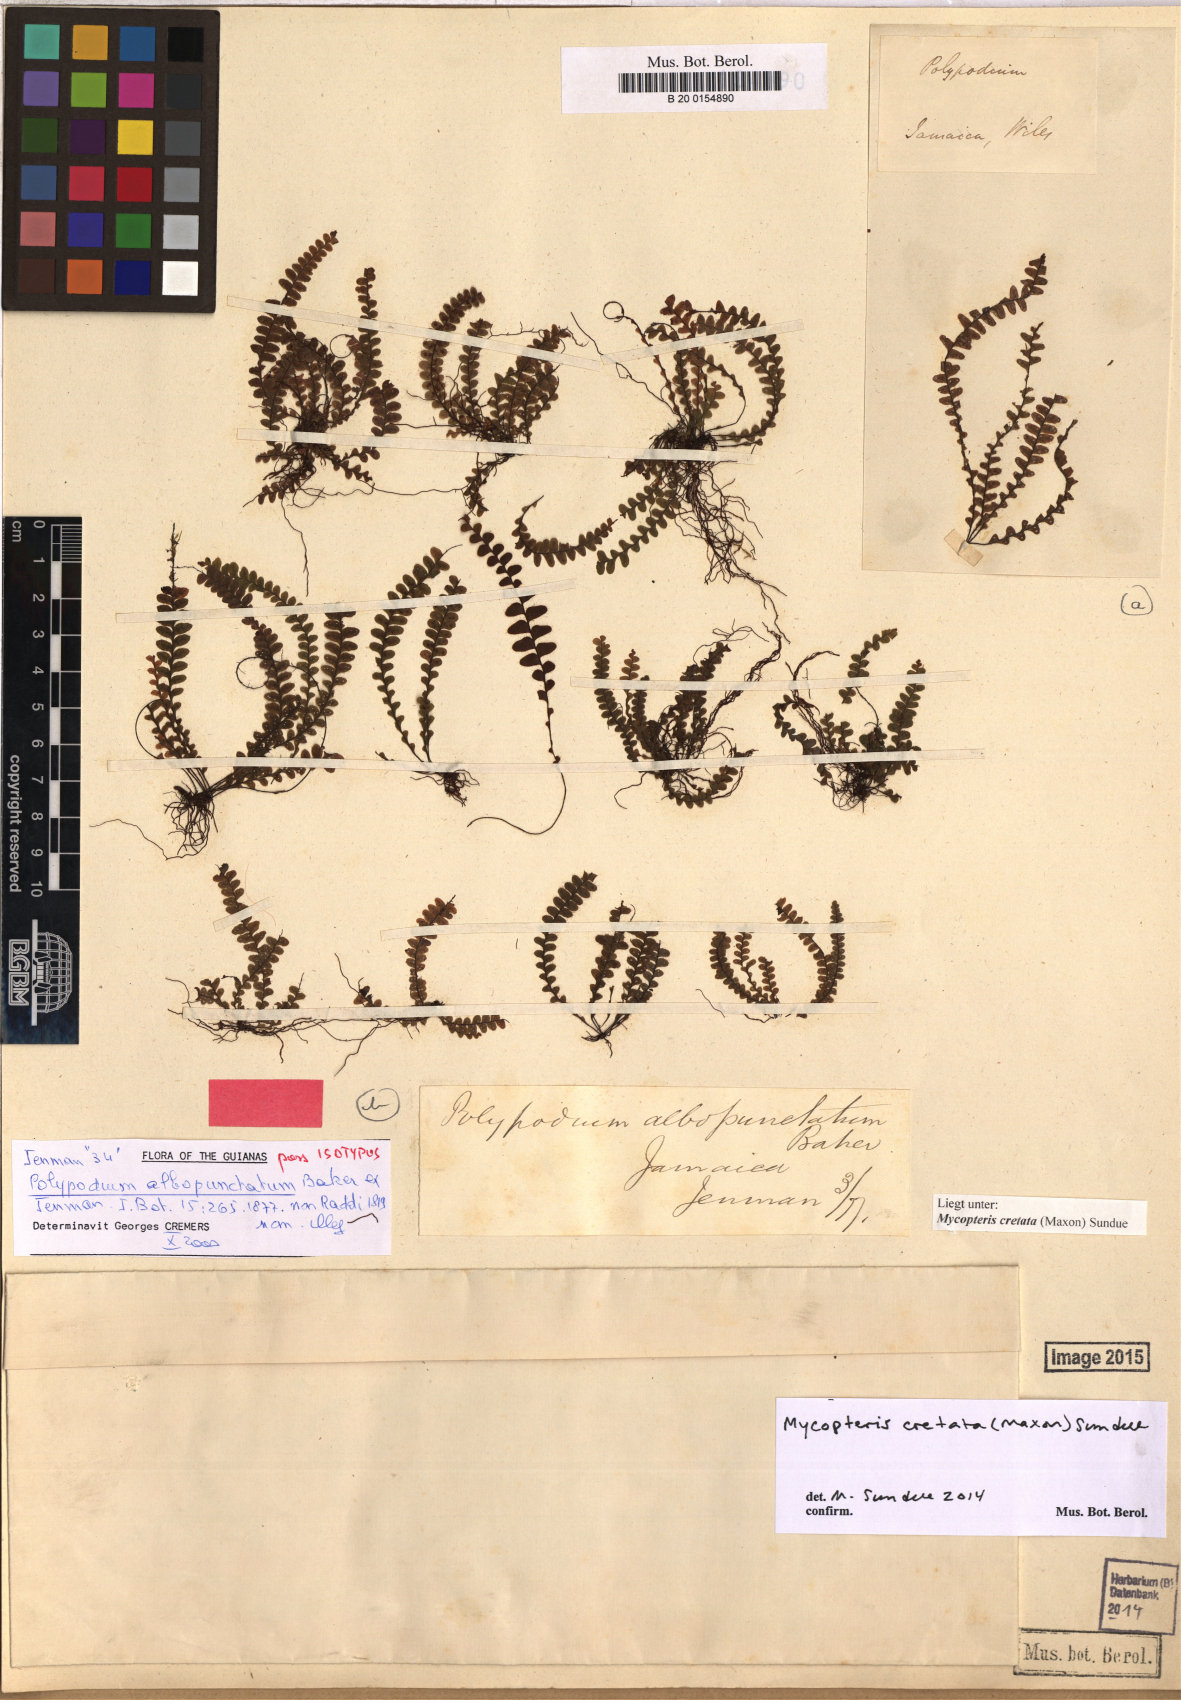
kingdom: Plantae
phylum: Tracheophyta
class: Polypodiopsida
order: Polypodiales
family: Polypodiaceae
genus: Mycopteris
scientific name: Mycopteris cretata
